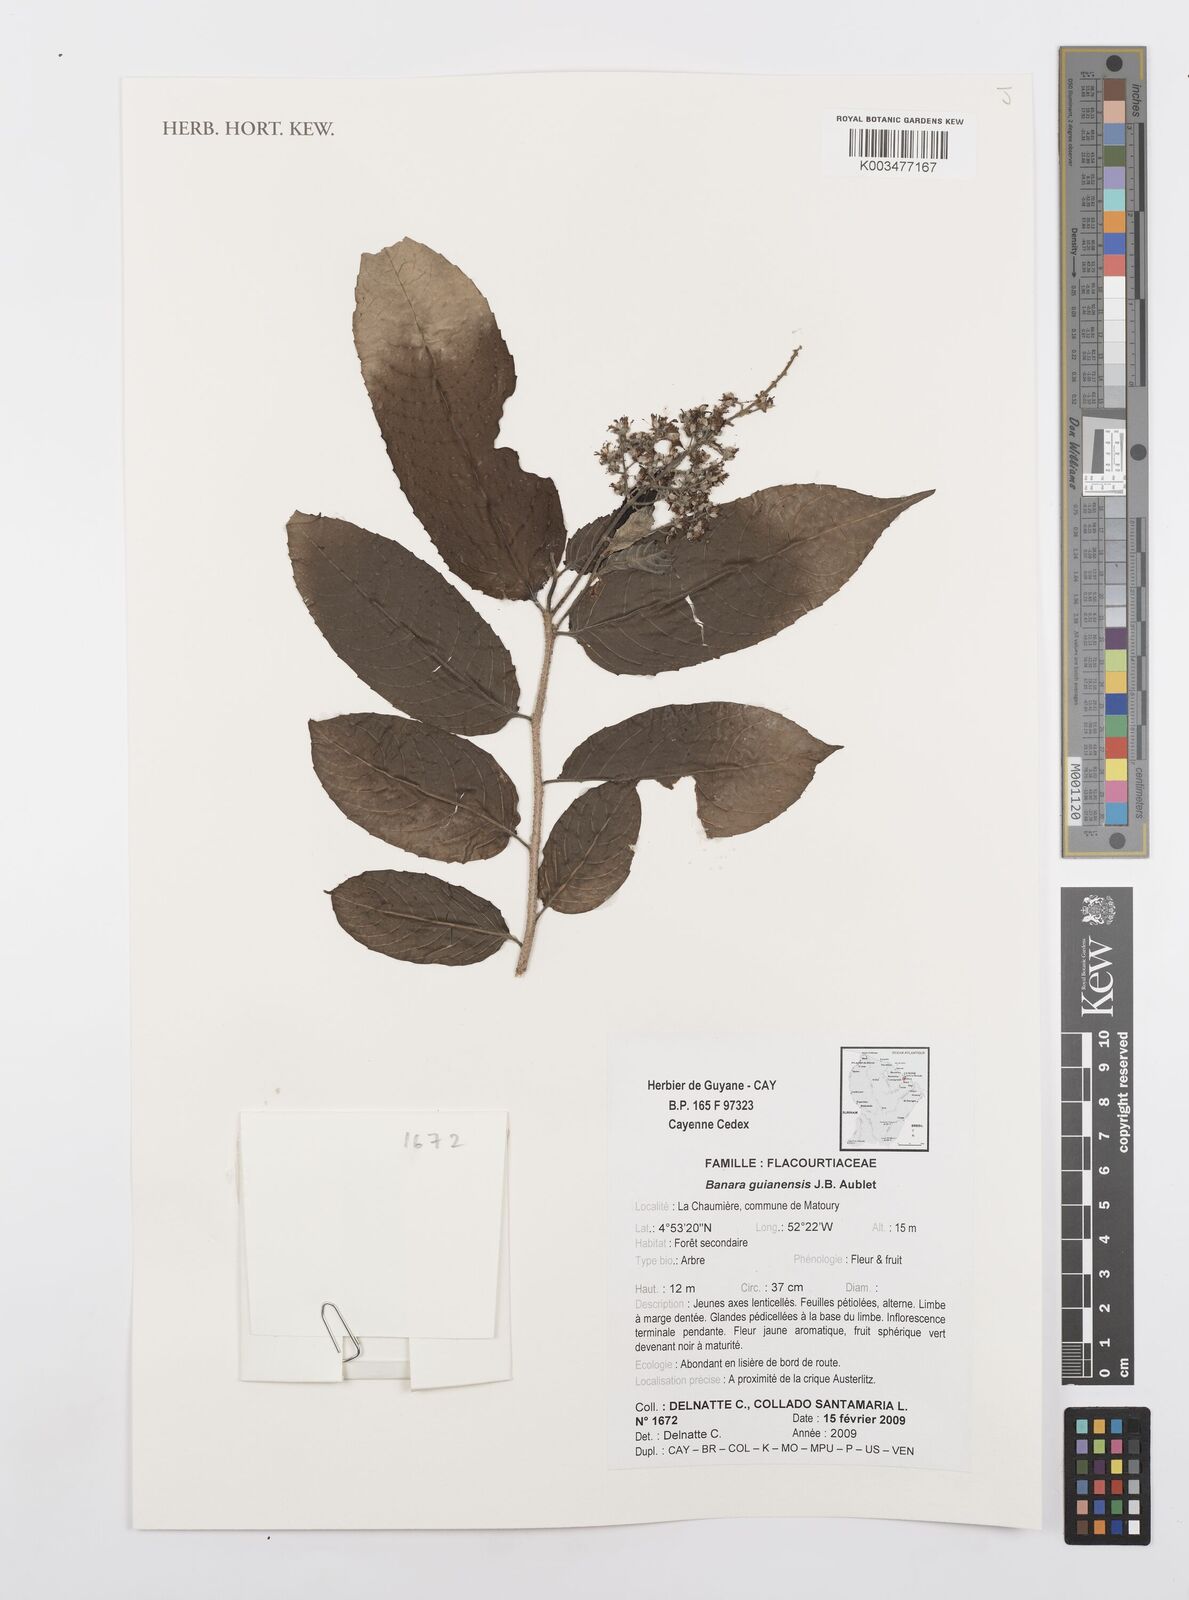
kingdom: Plantae
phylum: Tracheophyta
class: Magnoliopsida
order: Malpighiales
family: Salicaceae
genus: Banara
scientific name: Banara guianensis
